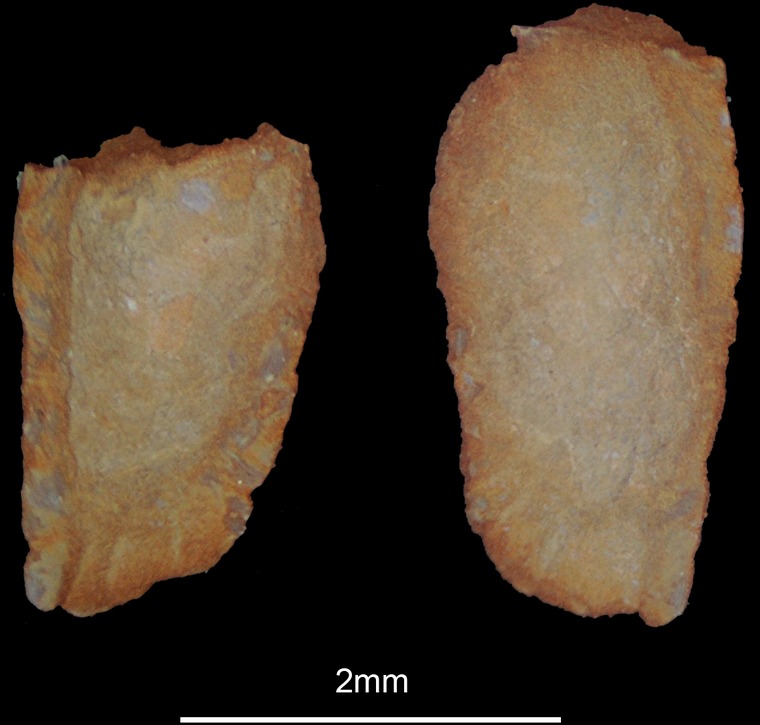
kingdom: Animalia
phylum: Chordata
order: Perciformes
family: Carangidae
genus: Alepes
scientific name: Alepes djedaba
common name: Shrimp scad
